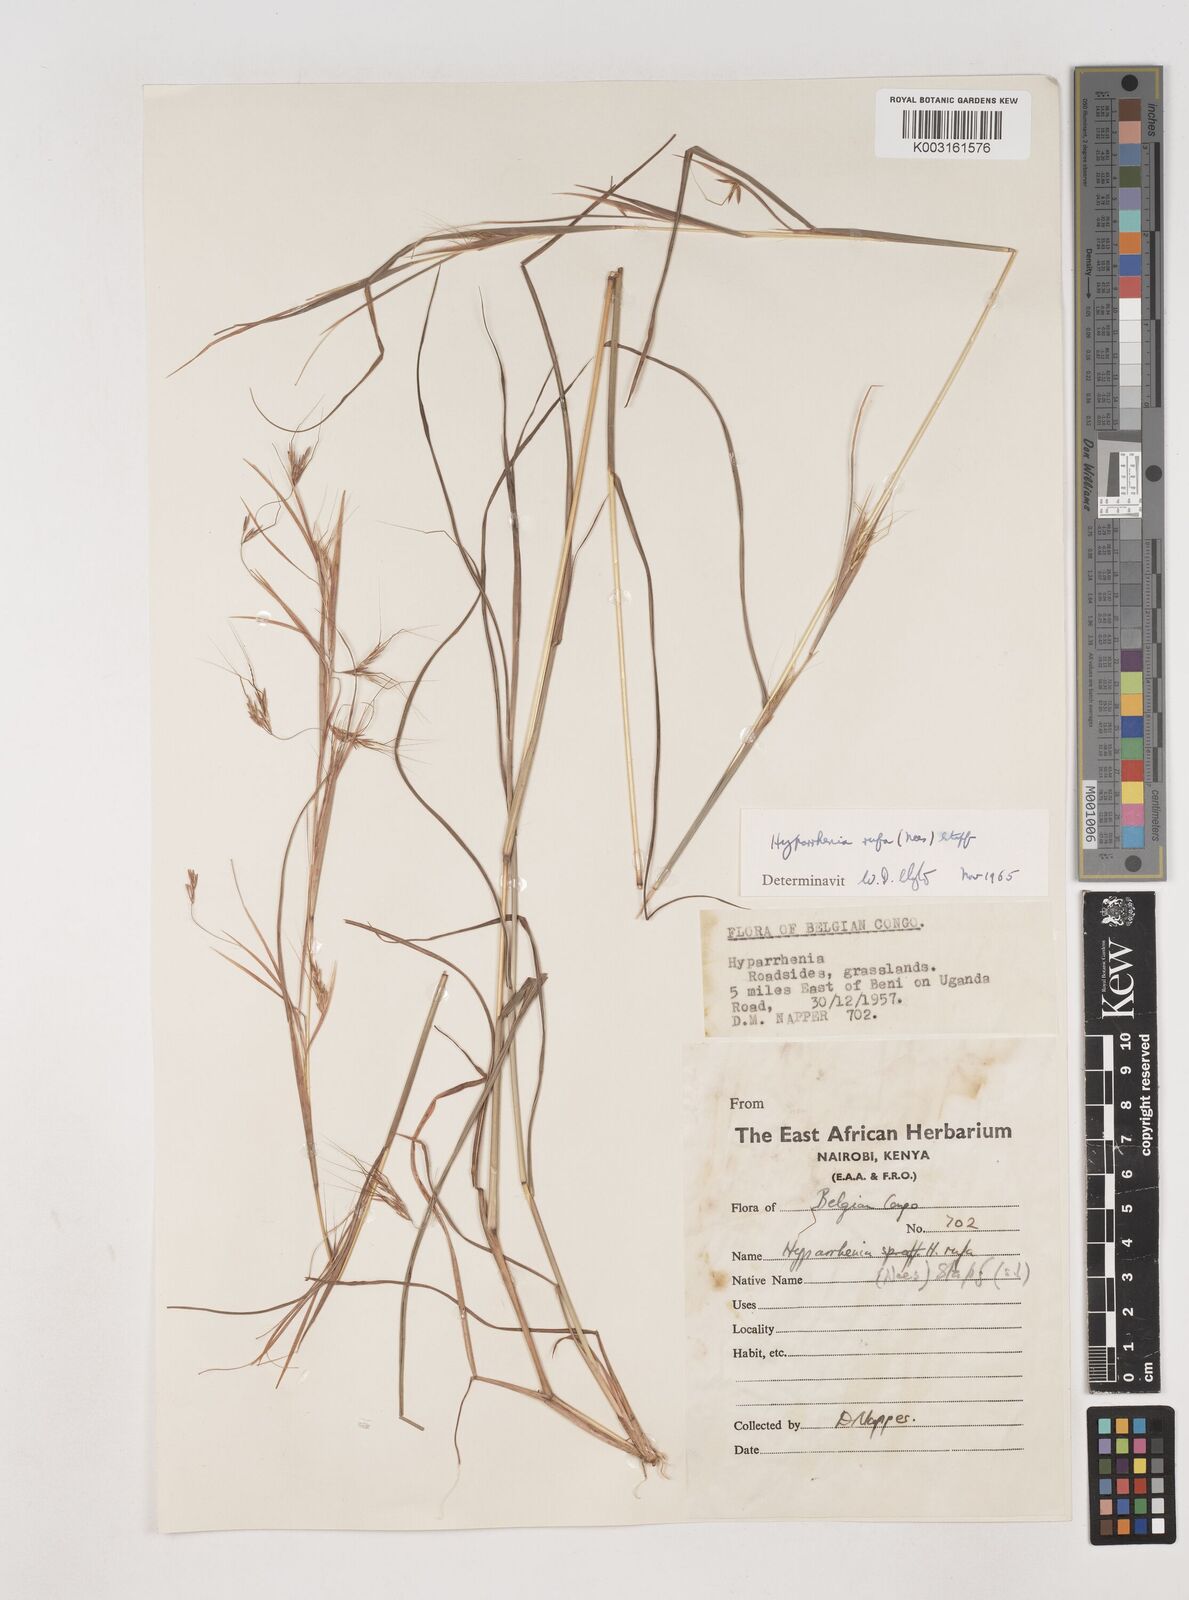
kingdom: Plantae
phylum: Tracheophyta
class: Liliopsida
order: Poales
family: Poaceae
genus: Hyparrhenia
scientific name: Hyparrhenia rufa
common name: Jaraguagrass
